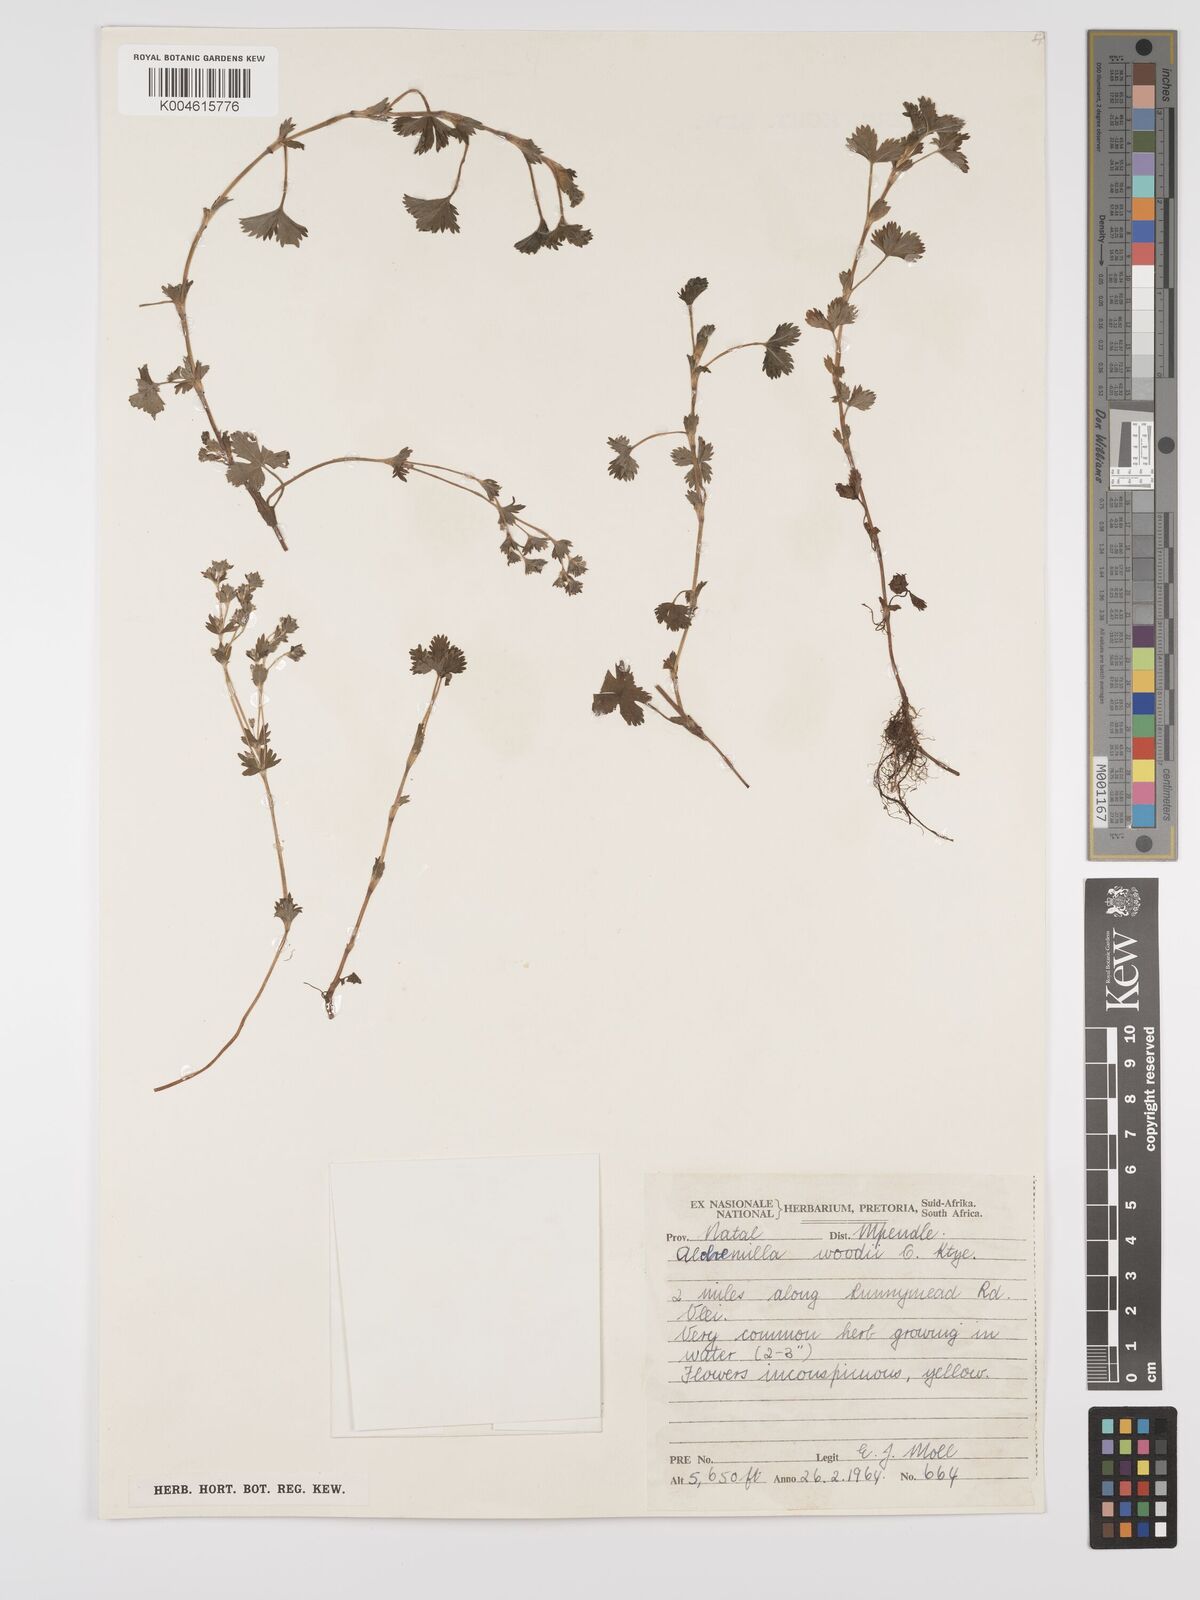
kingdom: Plantae
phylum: Tracheophyta
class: Magnoliopsida
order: Rosales
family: Rosaceae
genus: Alchemilla
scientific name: Alchemilla woodii
